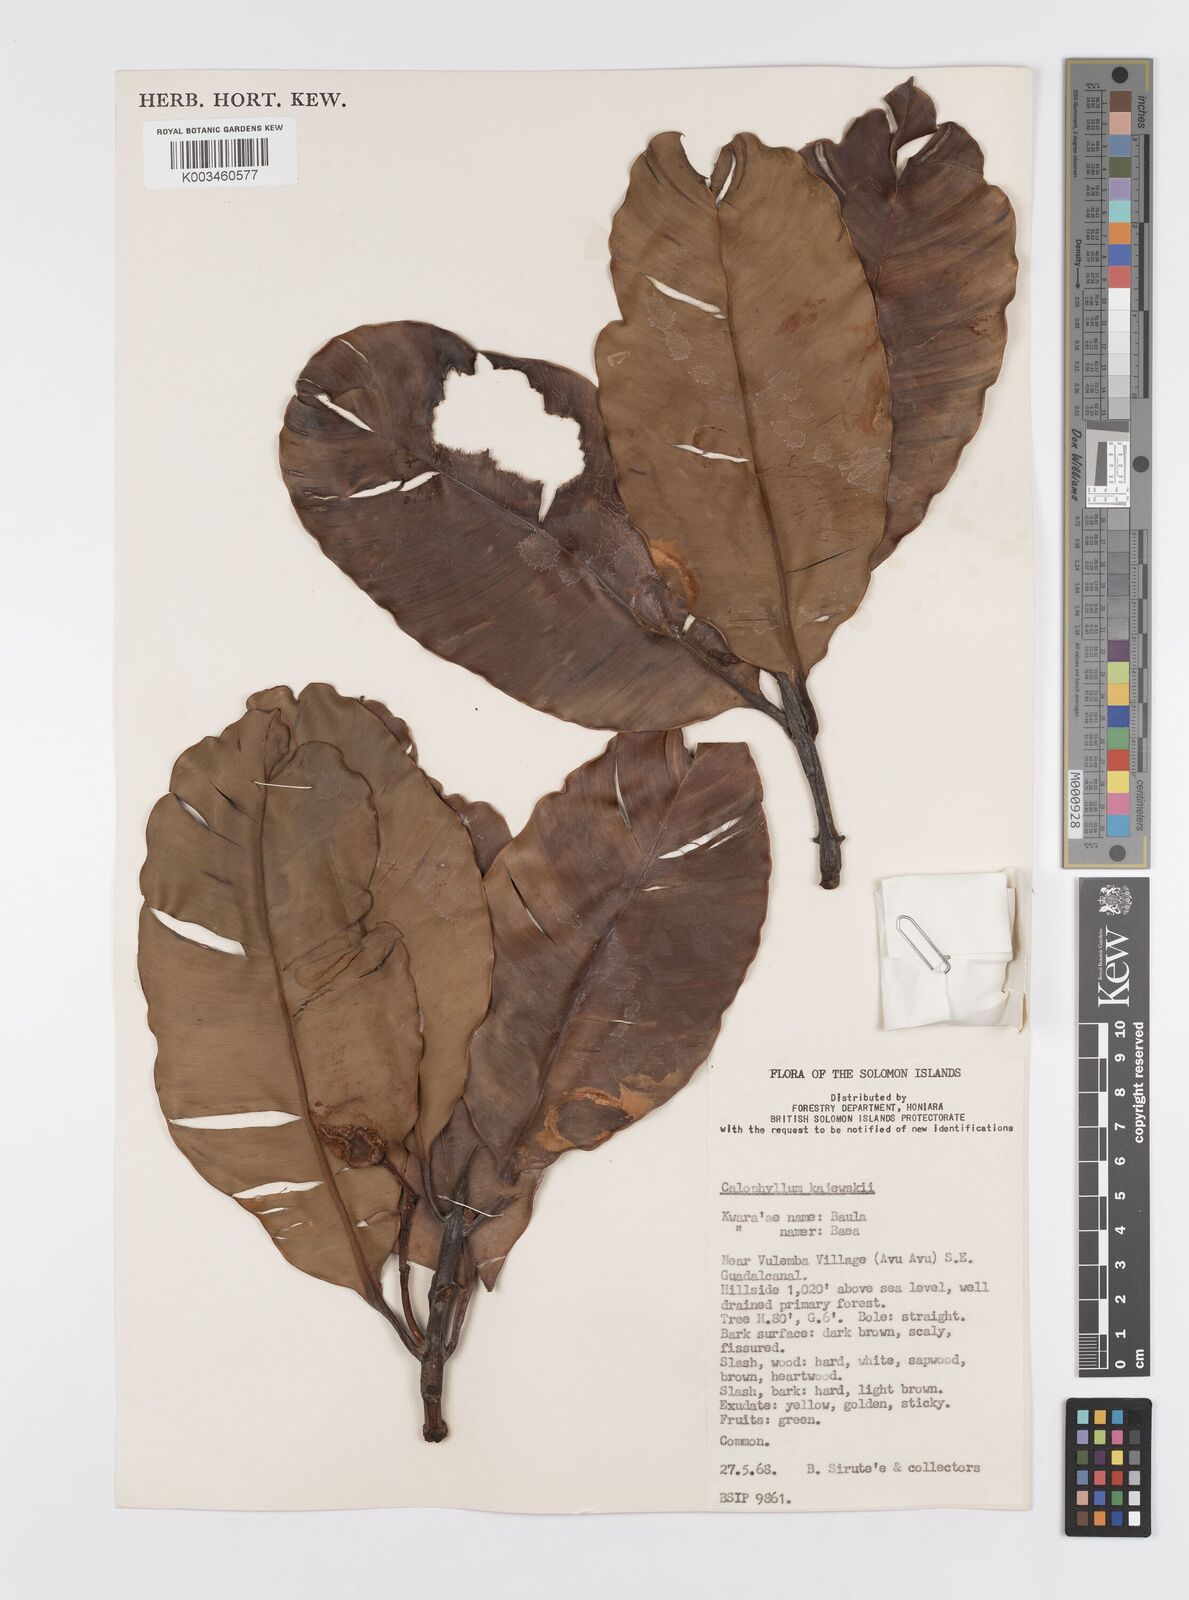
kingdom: Plantae
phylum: Tracheophyta
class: Magnoliopsida
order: Malpighiales
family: Calophyllaceae
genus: Calophyllum
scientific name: Calophyllum peekelii
